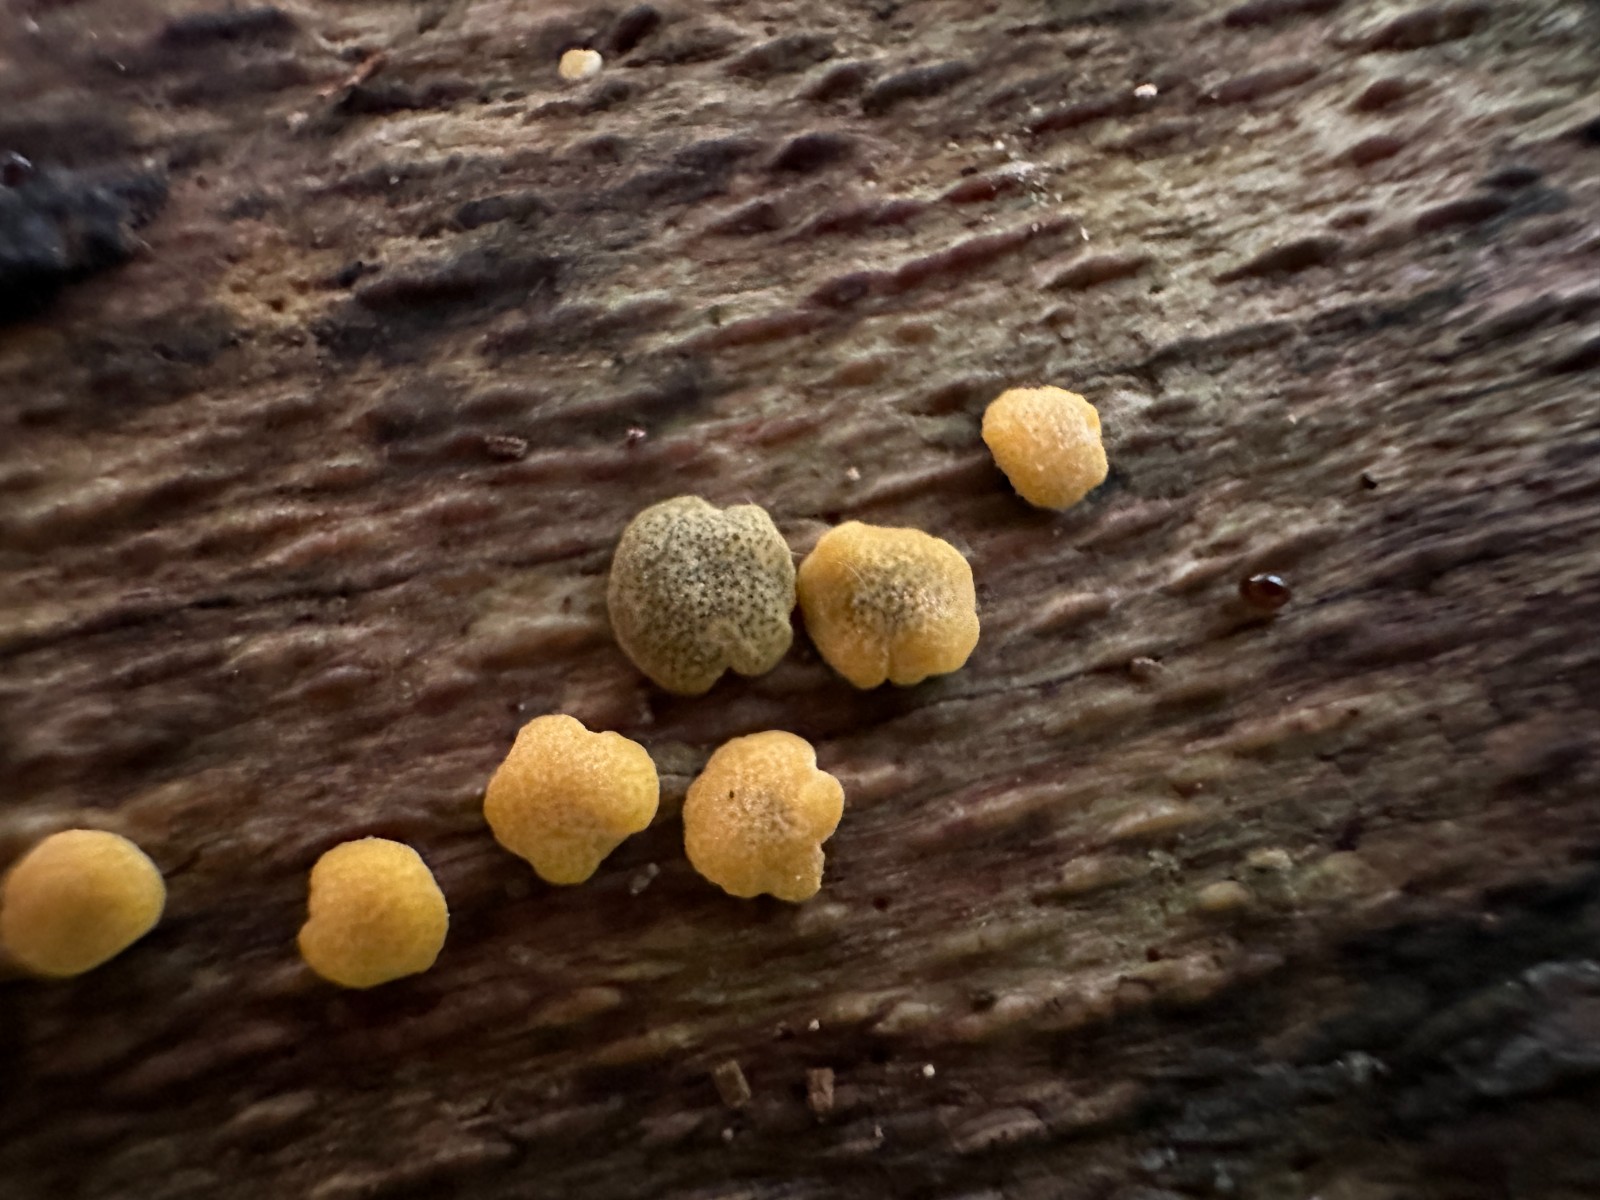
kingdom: Fungi
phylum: Ascomycota
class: Sordariomycetes
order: Hypocreales
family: Hypocreaceae
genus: Trichoderma
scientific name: Trichoderma aureoviride
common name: æggegul kødkerne
